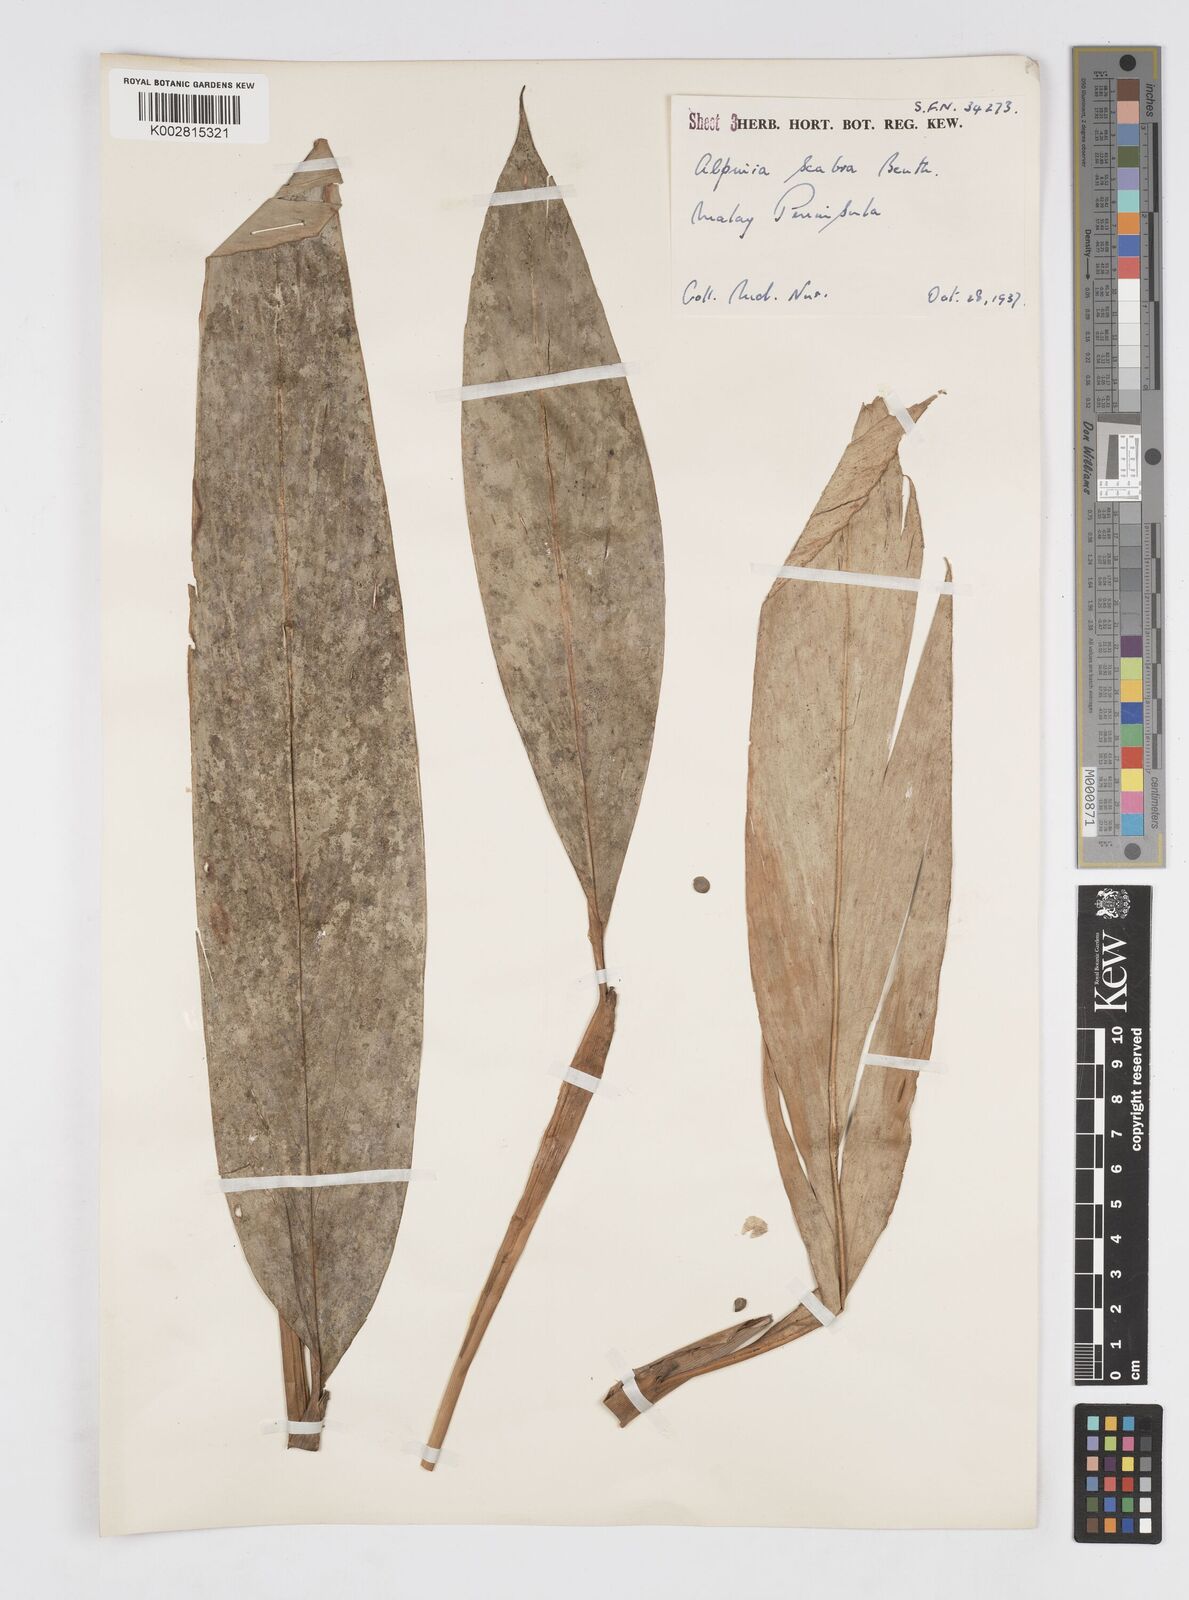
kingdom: Plantae
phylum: Tracheophyta
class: Liliopsida
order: Zingiberales
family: Zingiberaceae
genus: Alpinia
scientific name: Alpinia scabra
